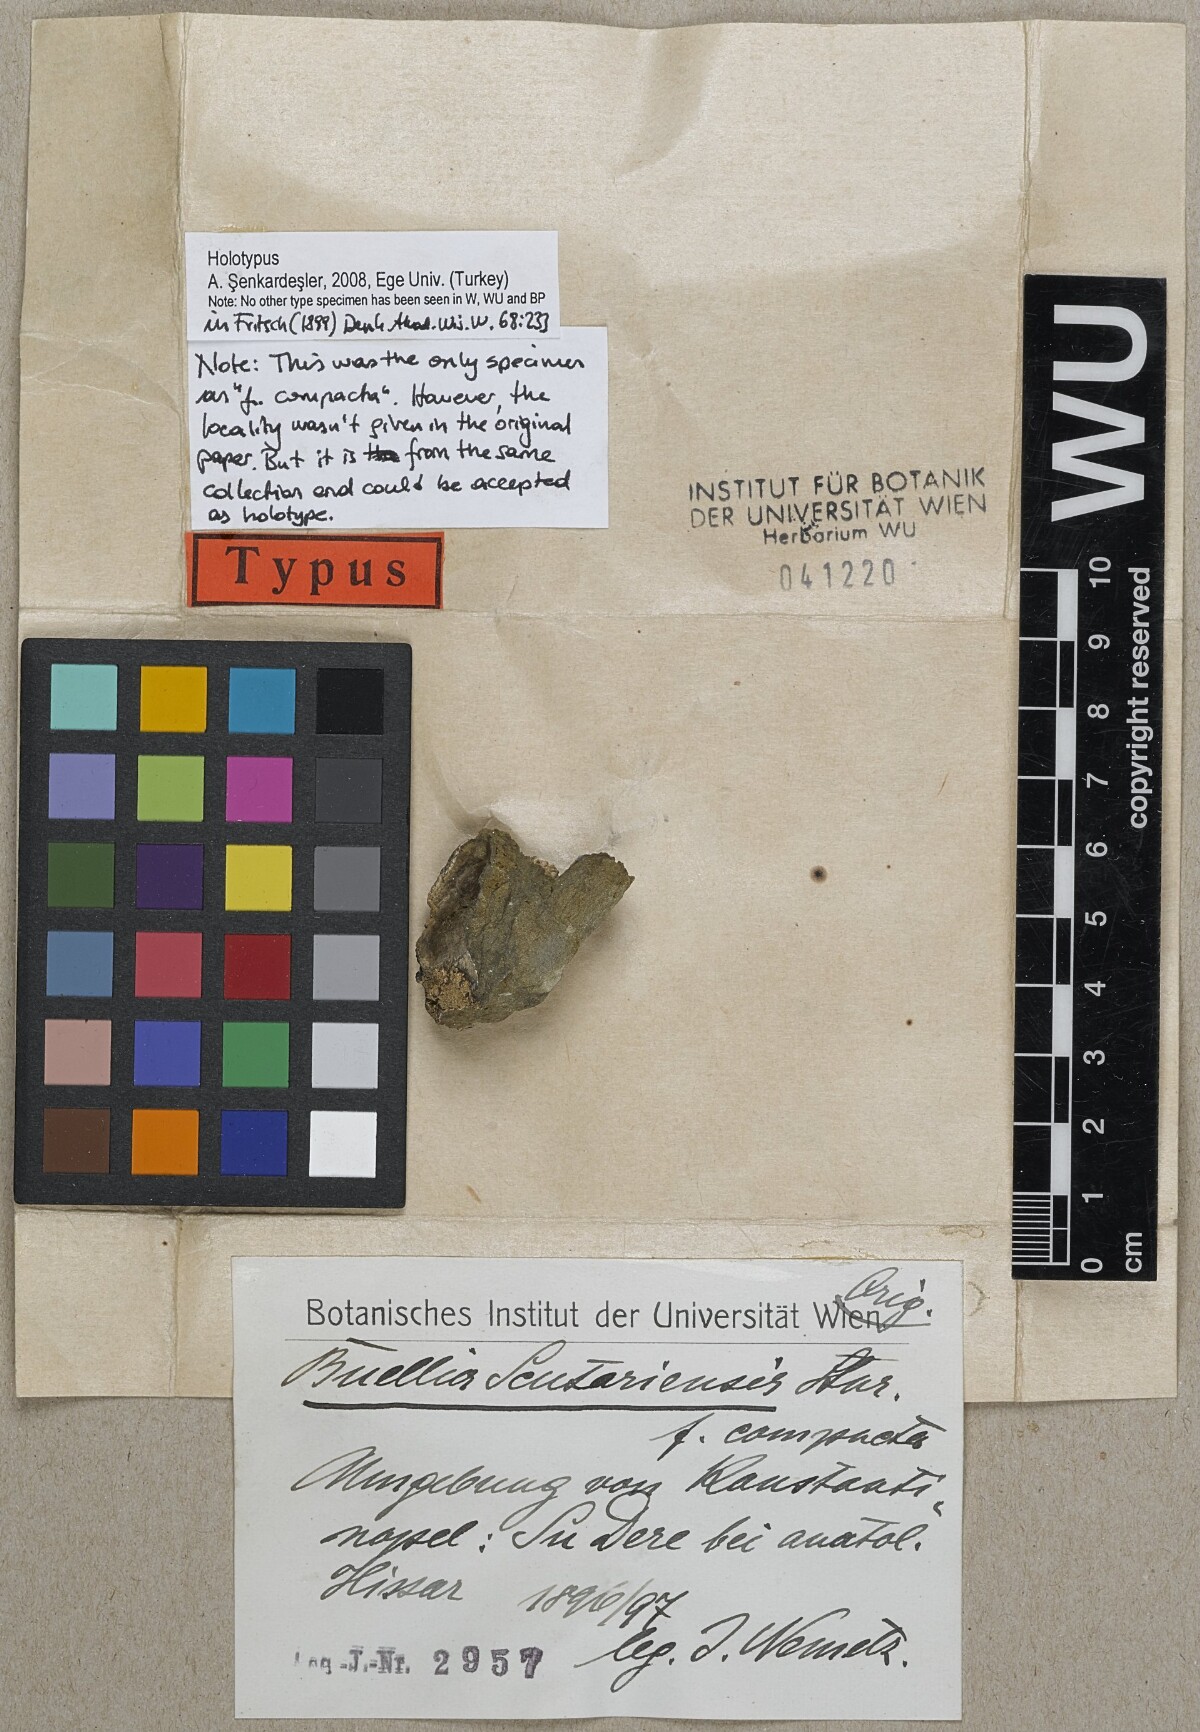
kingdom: Fungi
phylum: Ascomycota
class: Lecanoromycetes
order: Caliciales
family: Physciaceae
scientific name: Physciaceae
